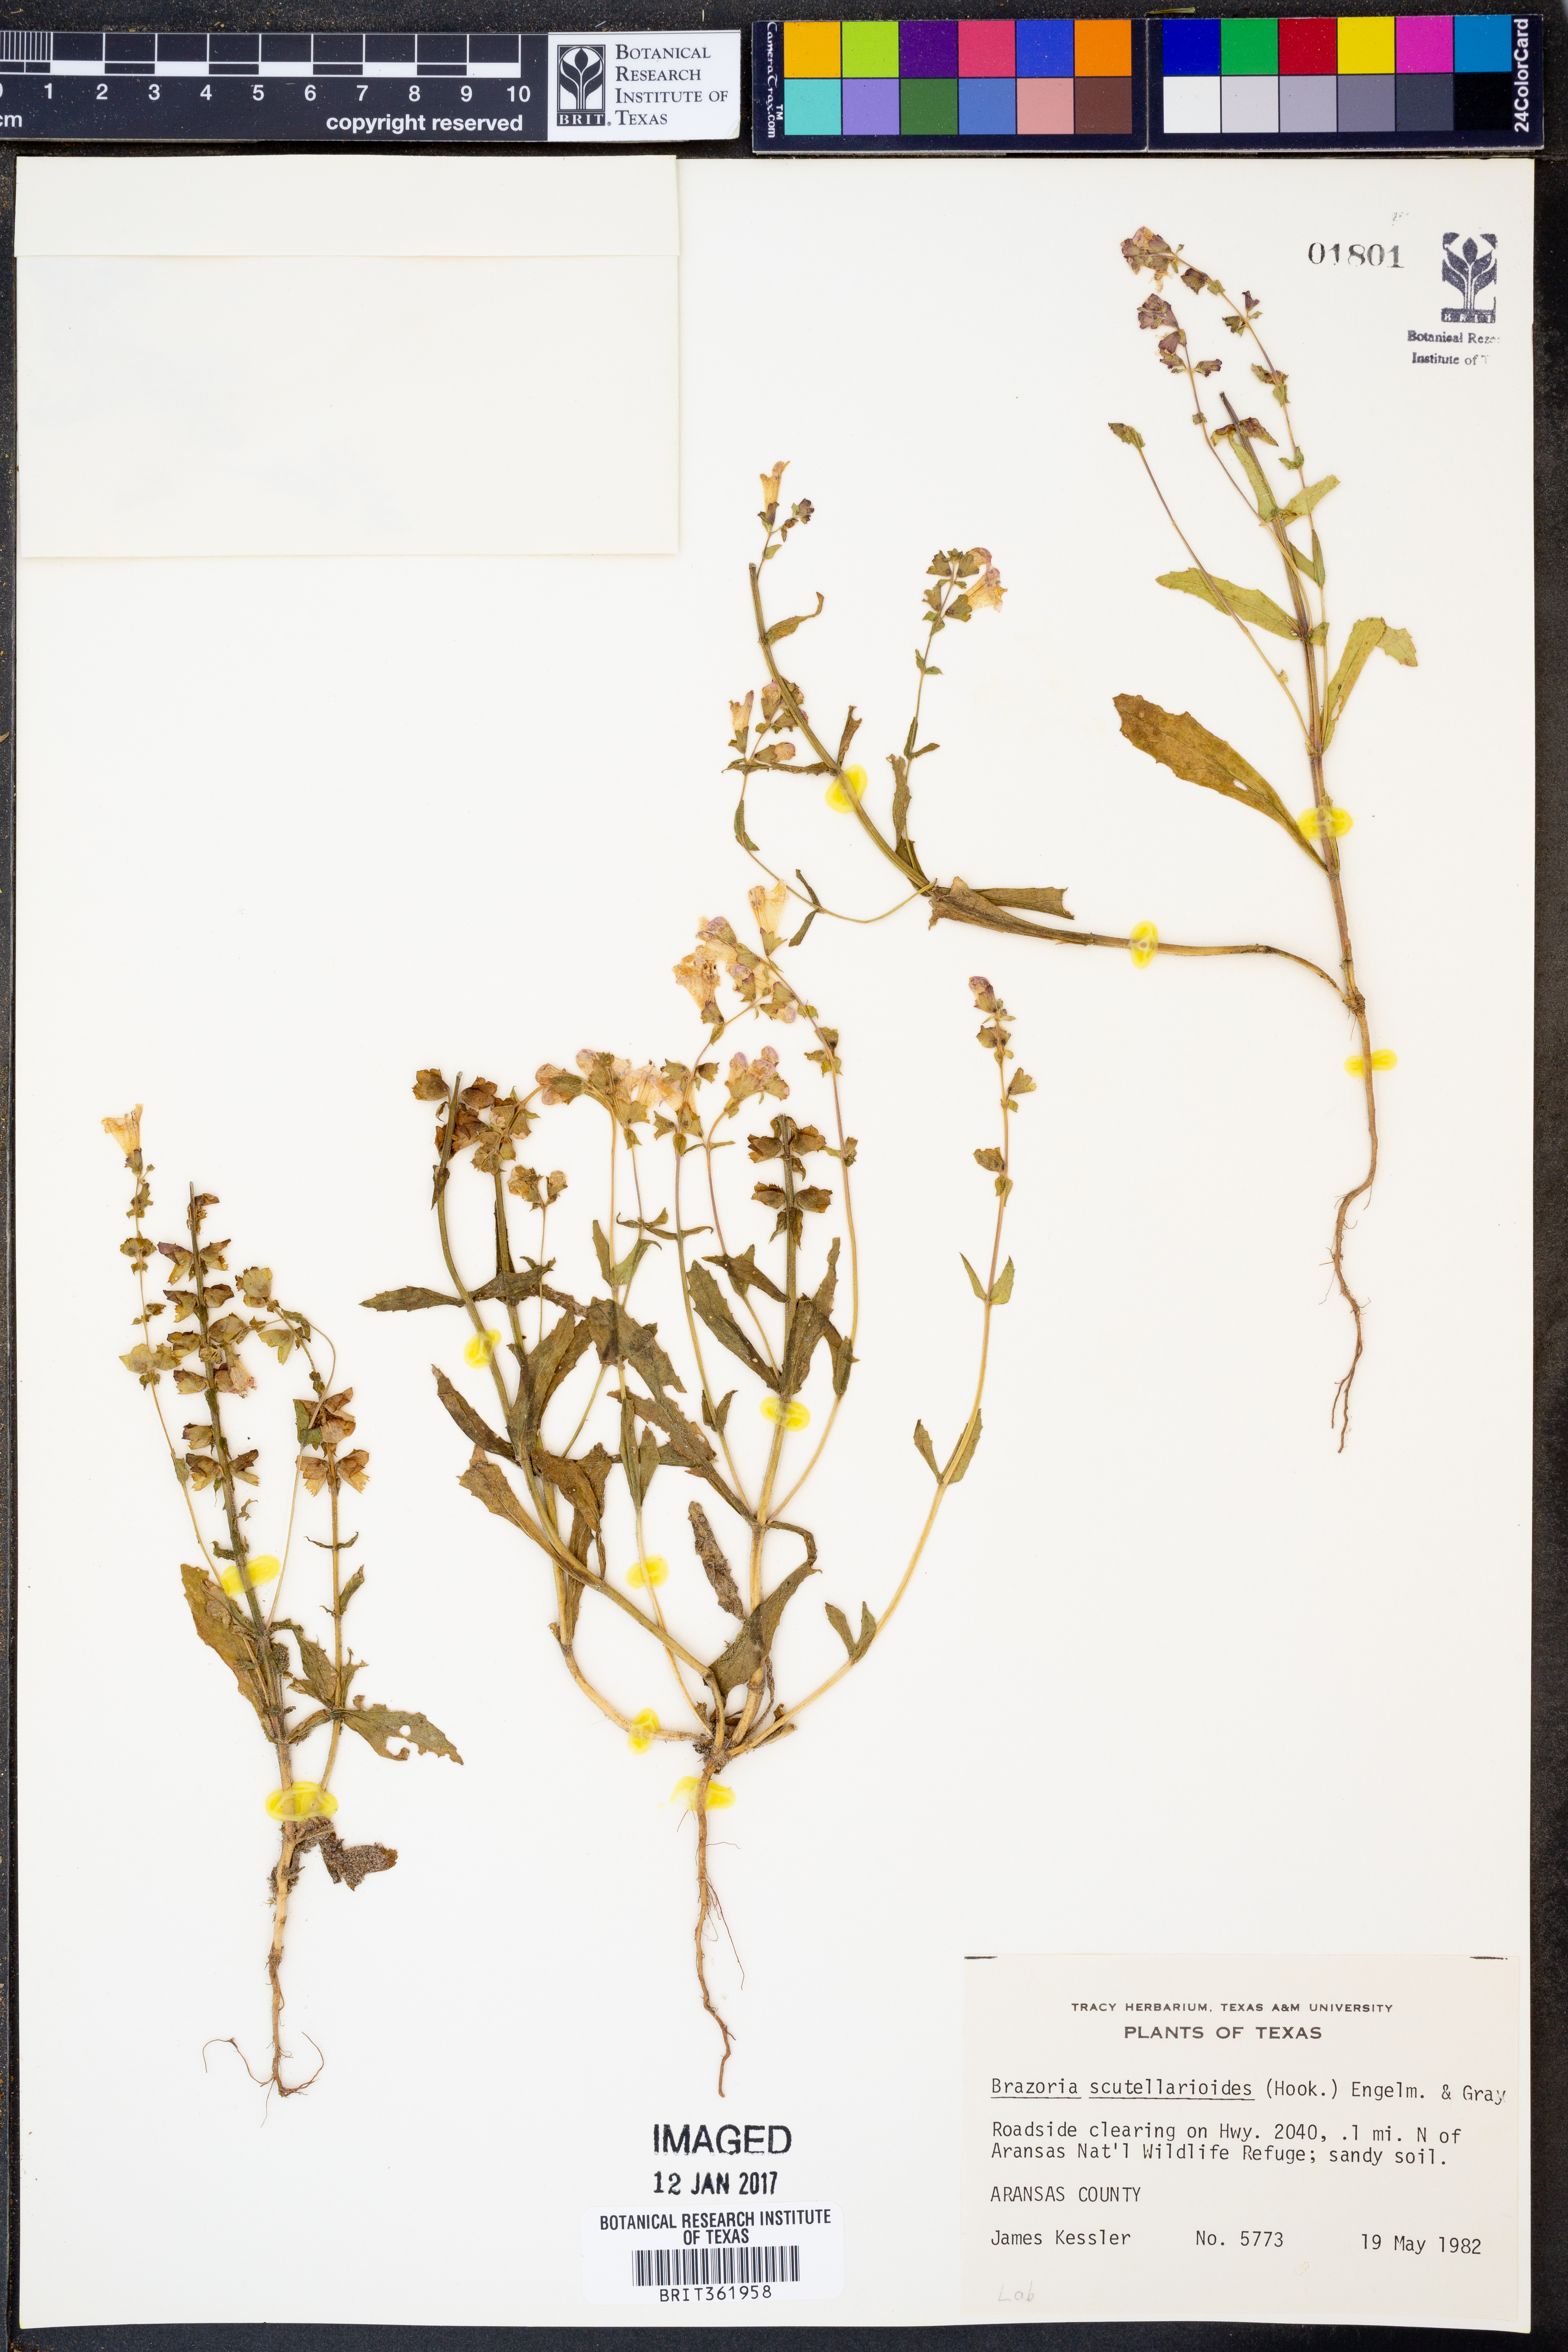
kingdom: Plantae
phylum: Tracheophyta
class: Magnoliopsida
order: Lamiales
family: Lamiaceae
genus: Warnockia
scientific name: Warnockia scutellarioides
